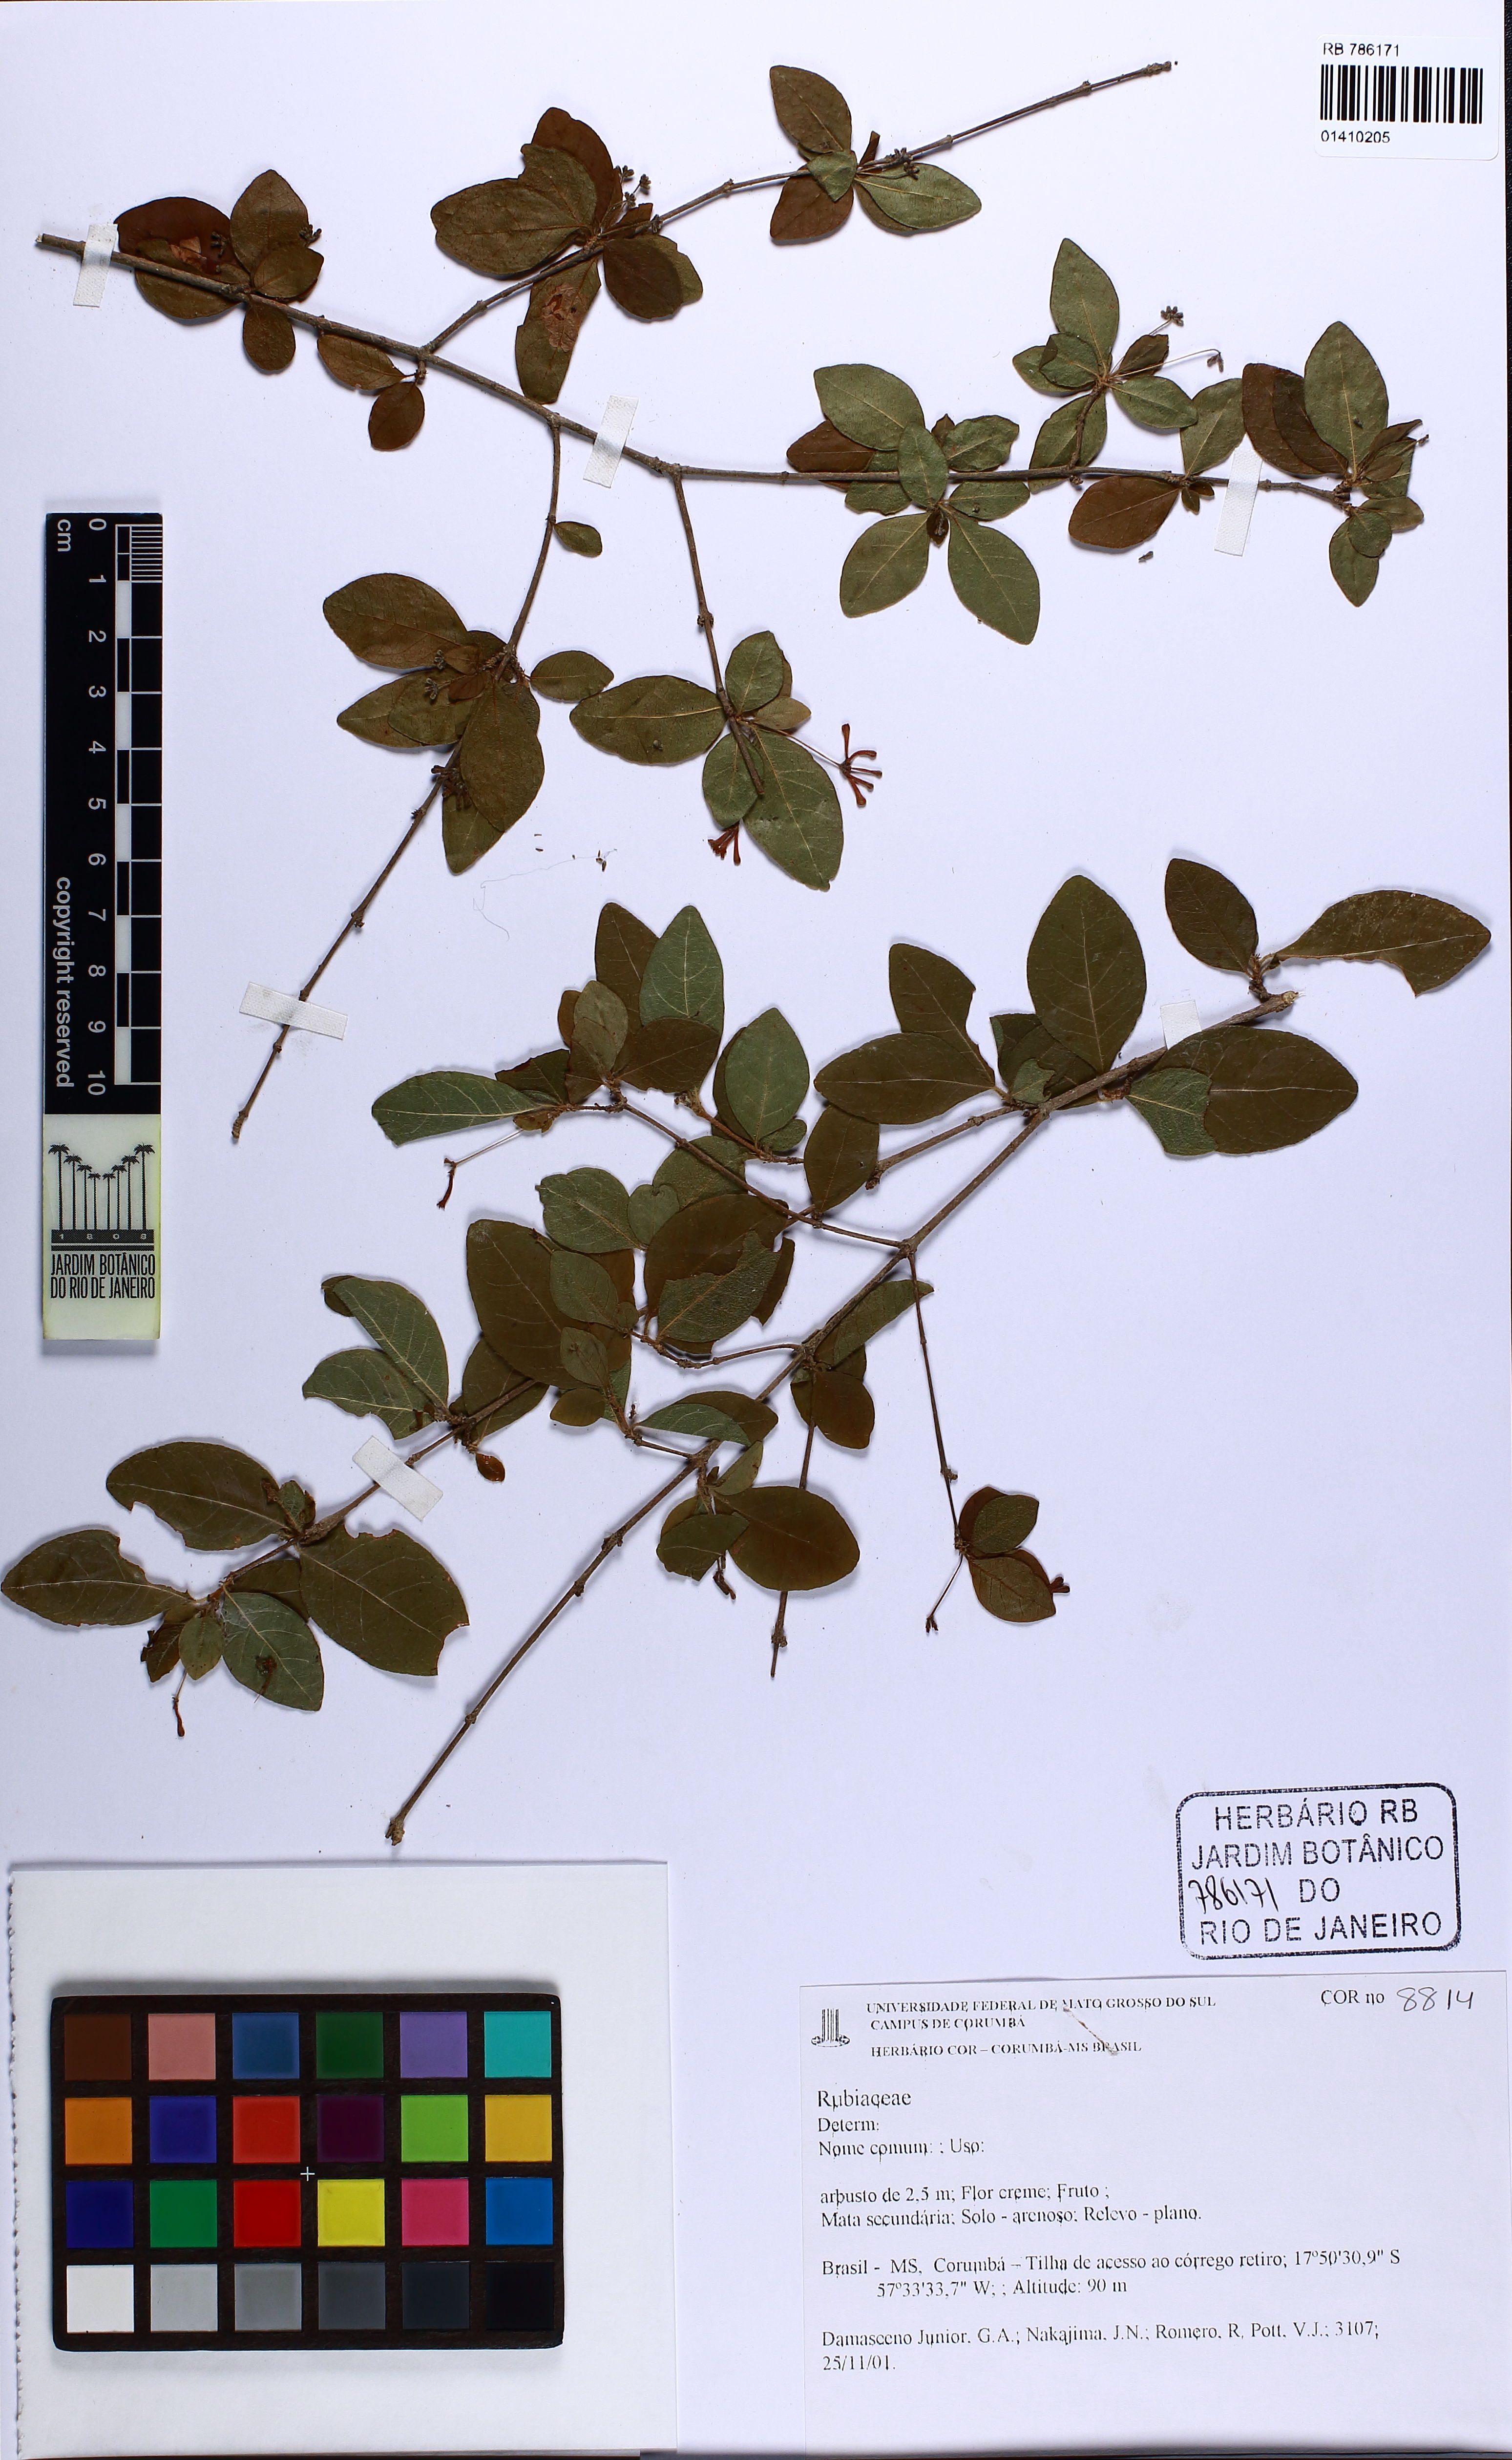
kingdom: Plantae
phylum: Tracheophyta
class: Magnoliopsida
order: Gentianales
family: Rubiaceae
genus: Chomelia
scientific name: Chomelia obtusa
